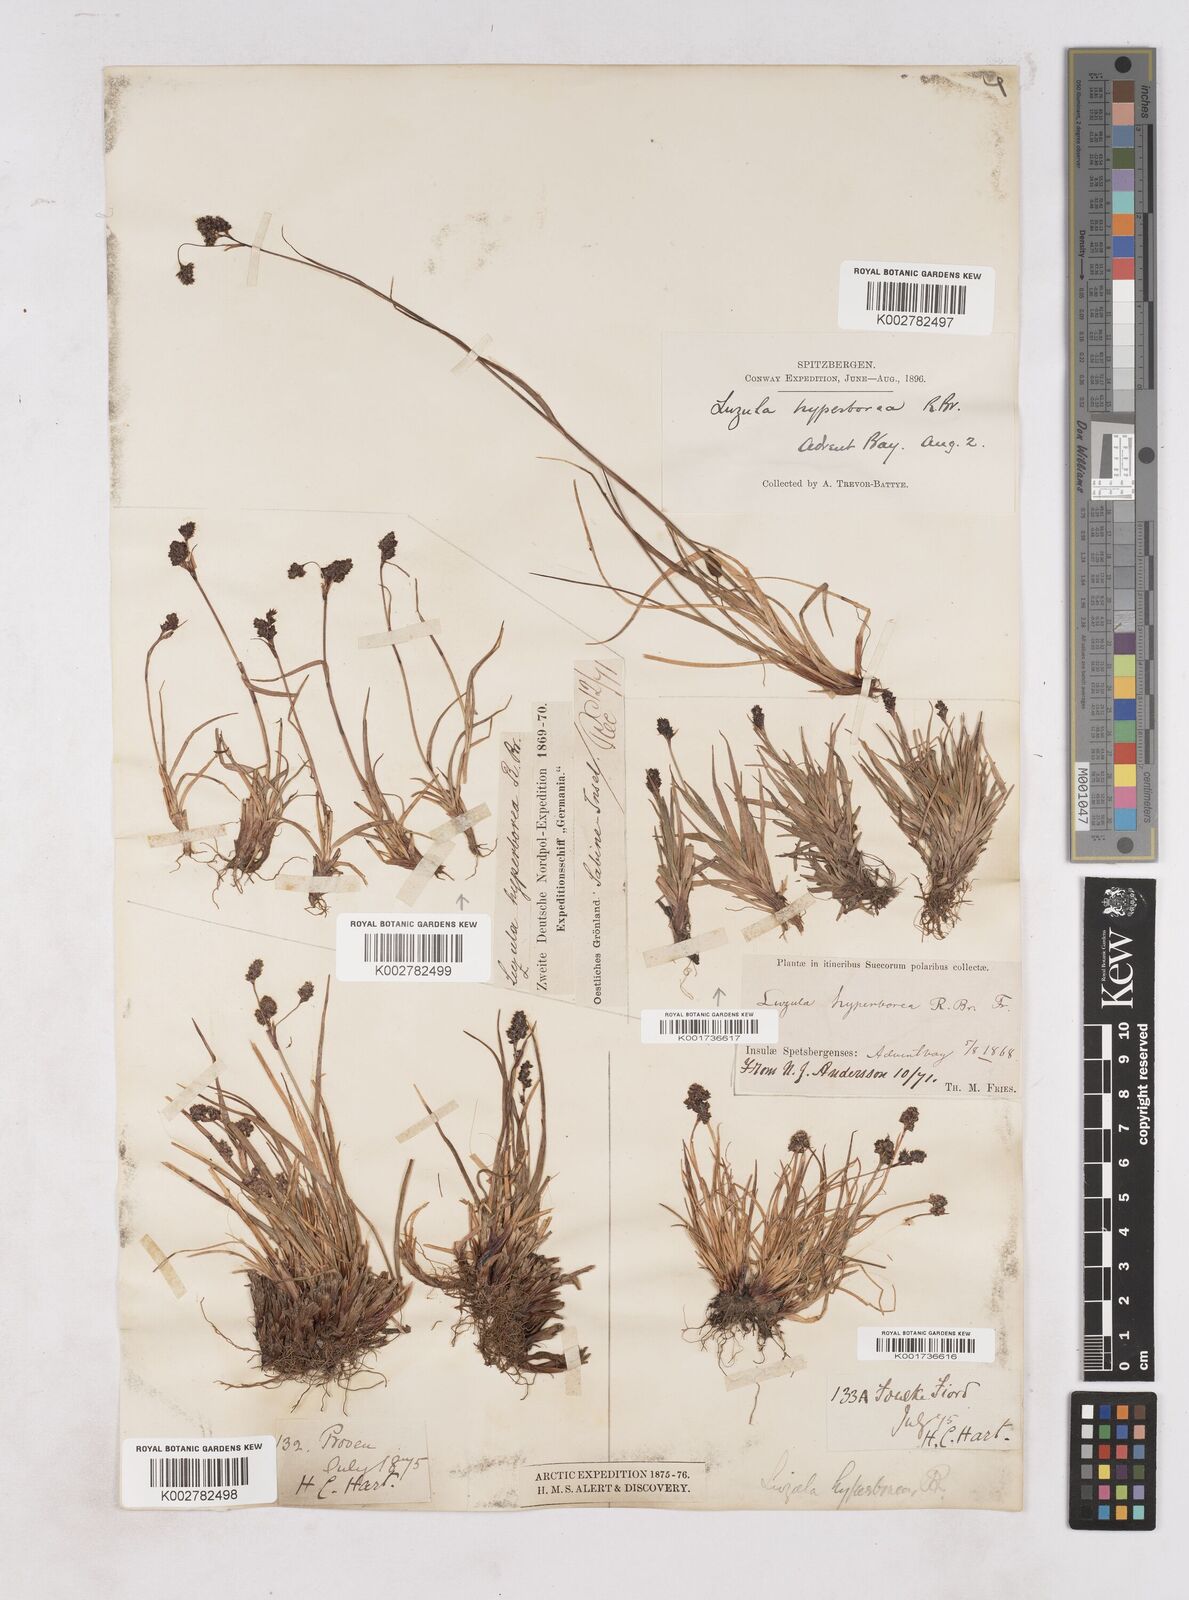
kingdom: Plantae
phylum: Tracheophyta
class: Liliopsida
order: Poales
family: Juncaceae
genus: Luzula
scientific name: Luzula arcuata
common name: Curved wood-rush
